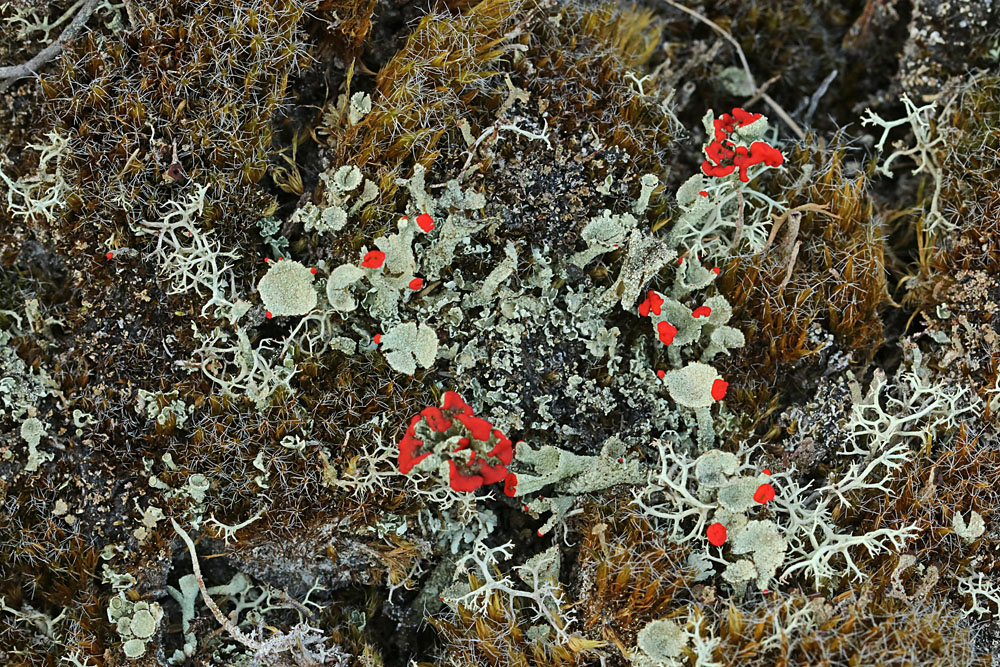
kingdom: Fungi
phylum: Ascomycota
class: Lecanoromycetes
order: Lecanorales
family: Cladoniaceae
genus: Cladonia
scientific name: Cladonia diversa
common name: rød bægerlav
